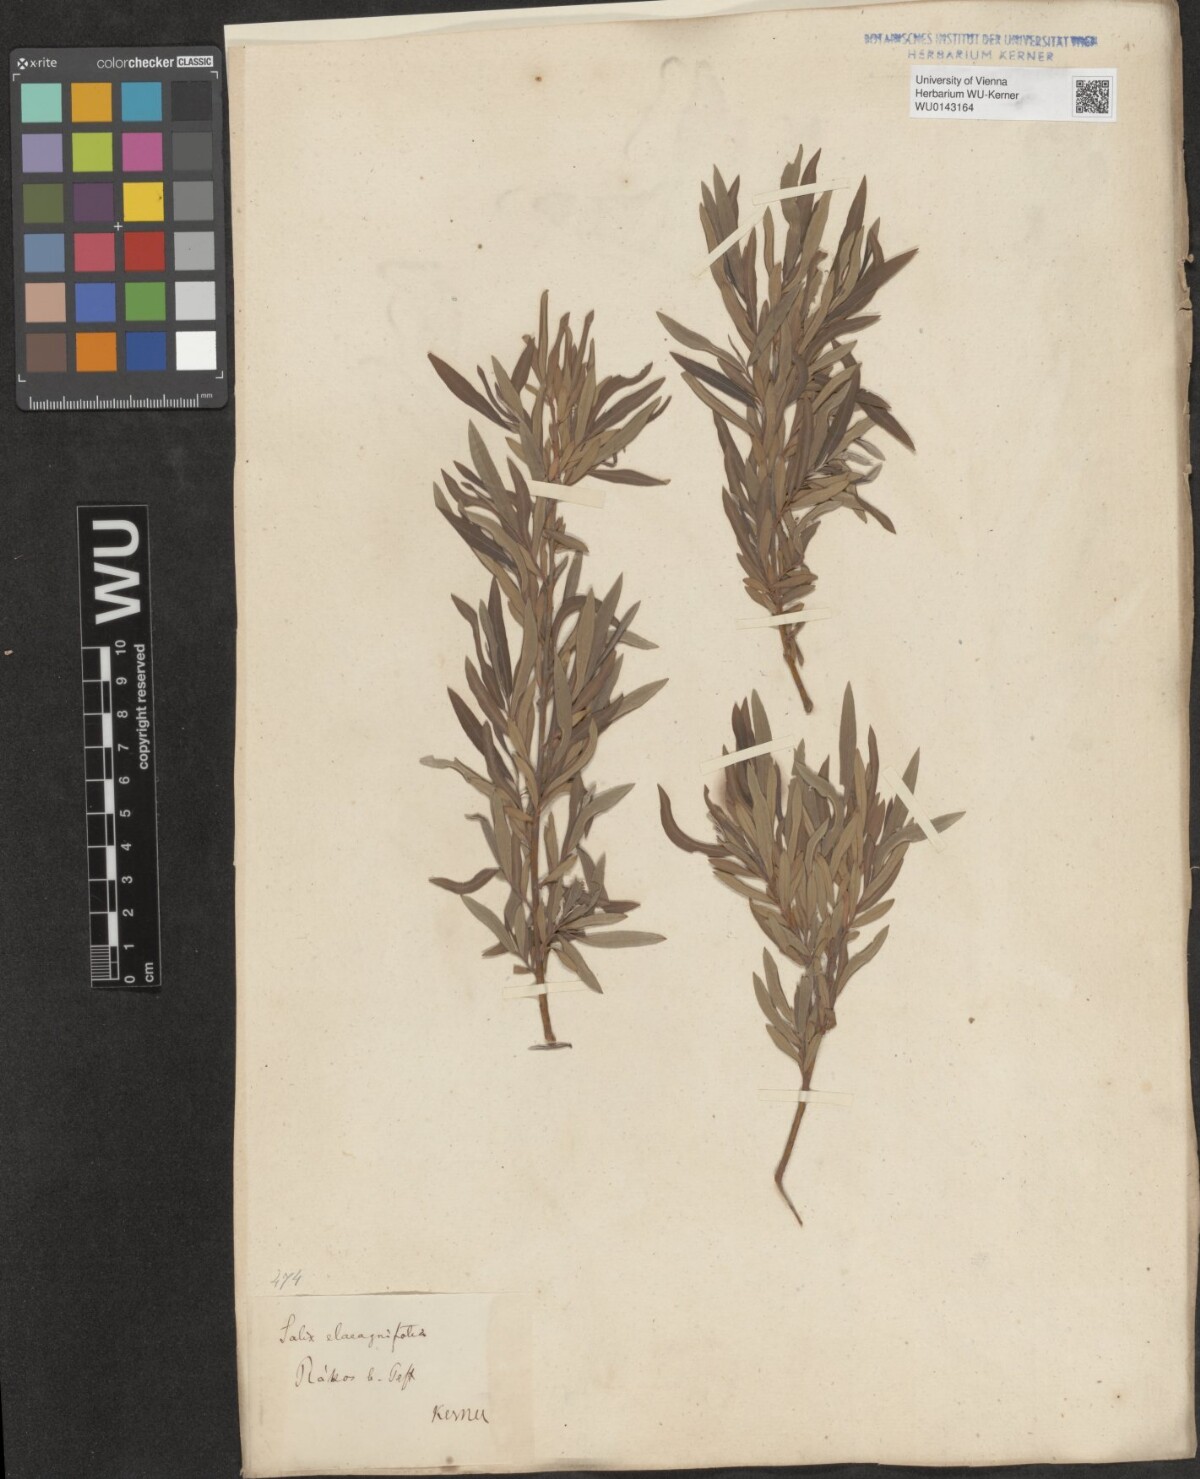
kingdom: Plantae
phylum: Tracheophyta
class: Magnoliopsida
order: Malpighiales
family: Salicaceae
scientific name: Salicaceae
